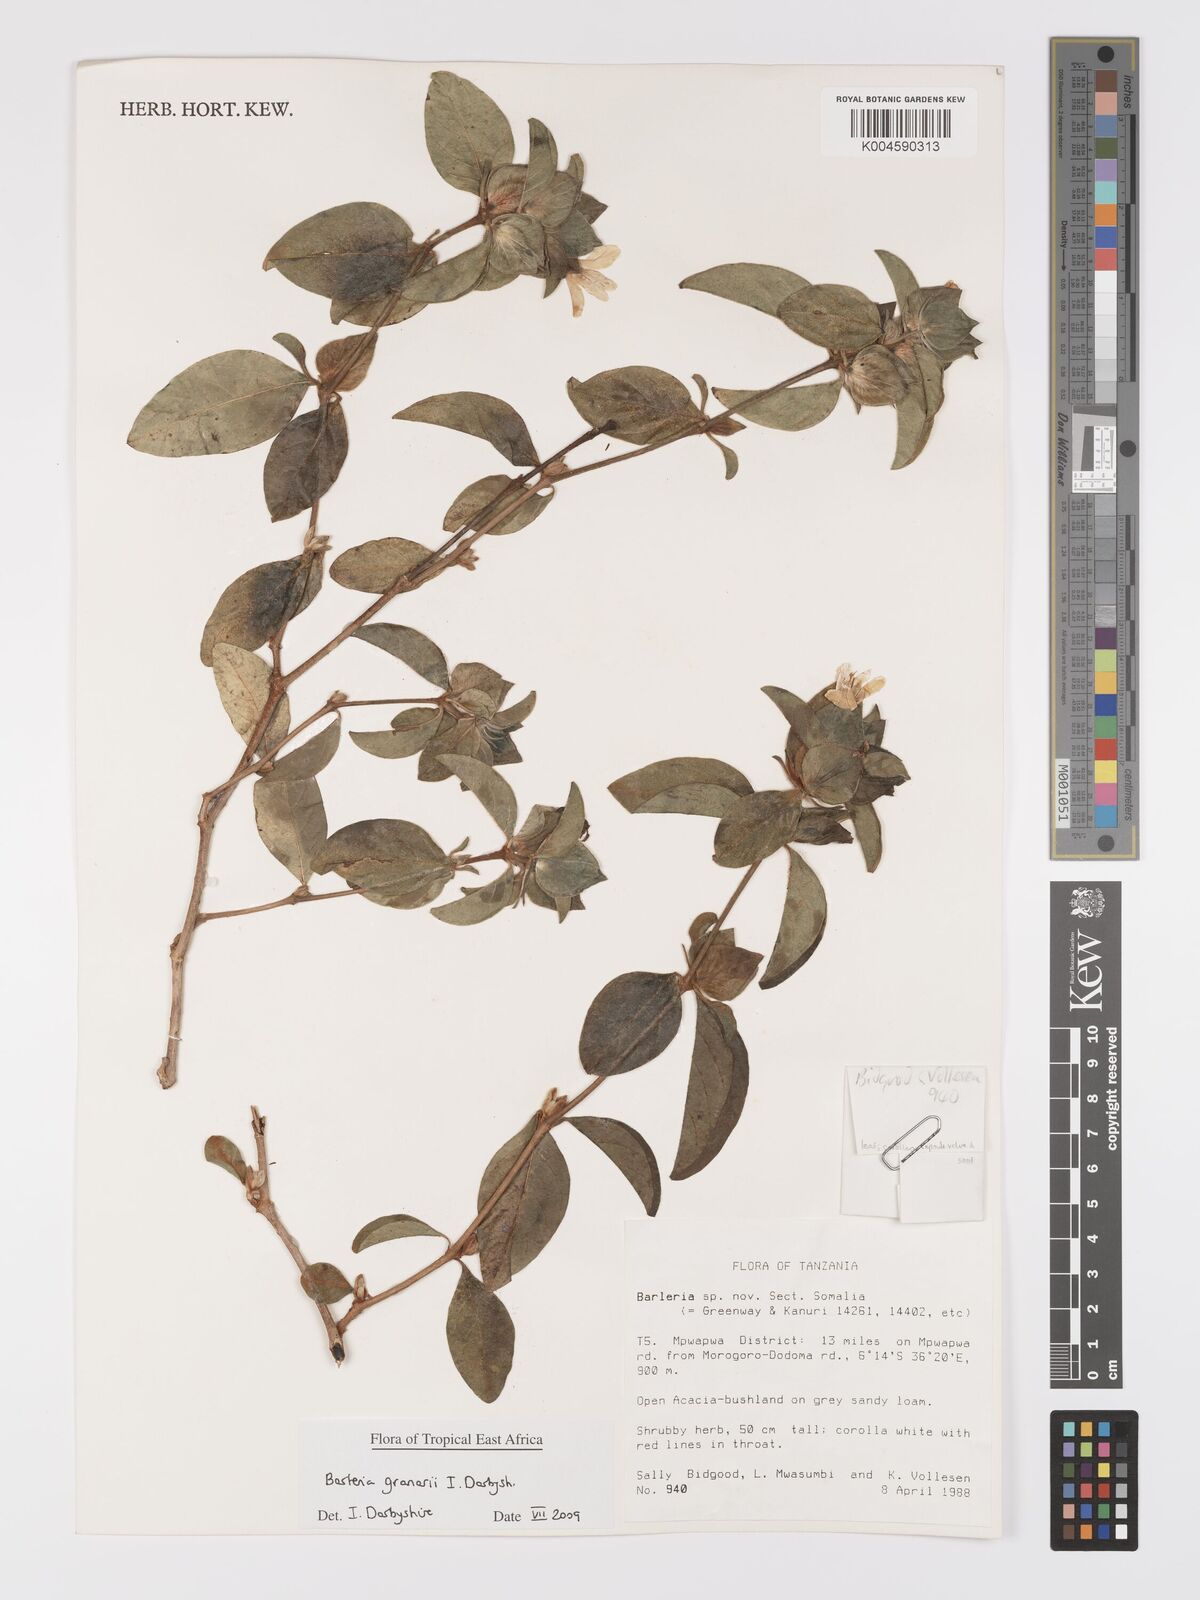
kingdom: Plantae
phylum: Tracheophyta
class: Magnoliopsida
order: Lamiales
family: Acanthaceae
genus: Barleria
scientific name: Barleria granarii
